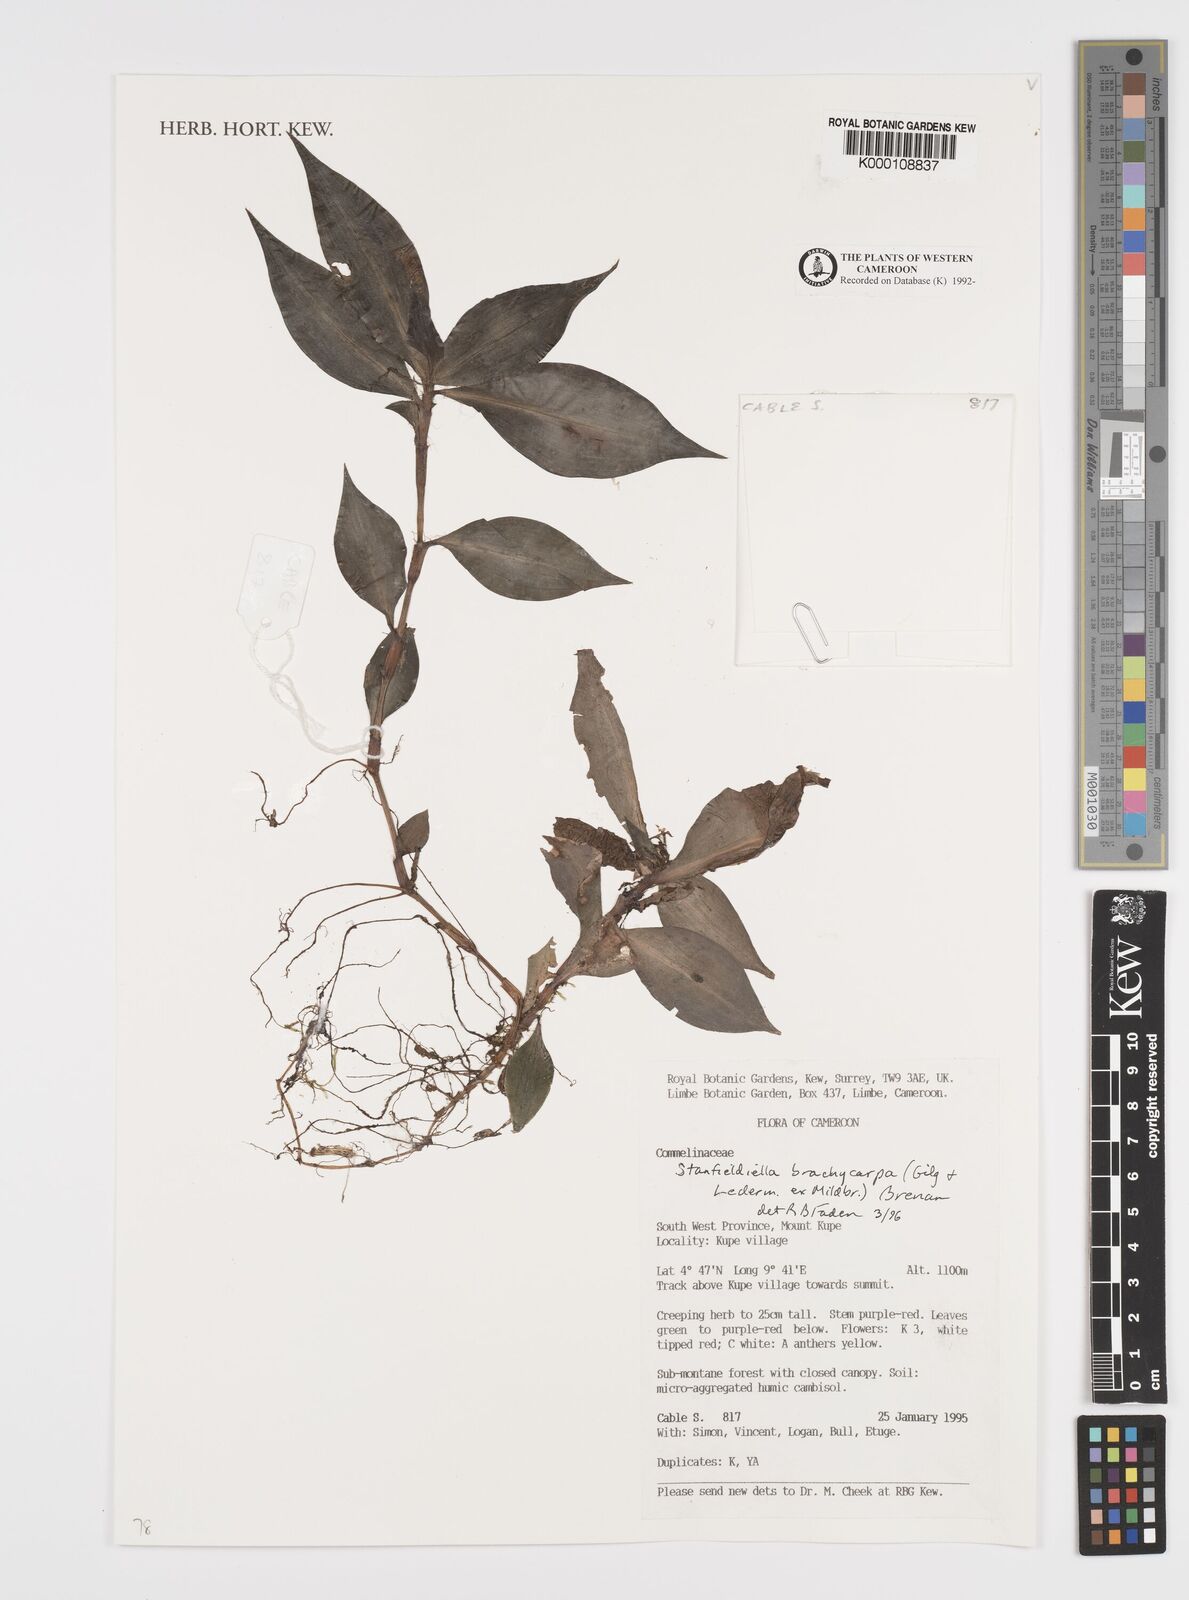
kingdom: Plantae
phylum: Tracheophyta
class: Liliopsida
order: Commelinales
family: Commelinaceae
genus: Stanfieldiella
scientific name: Stanfieldiella brachycarpa
